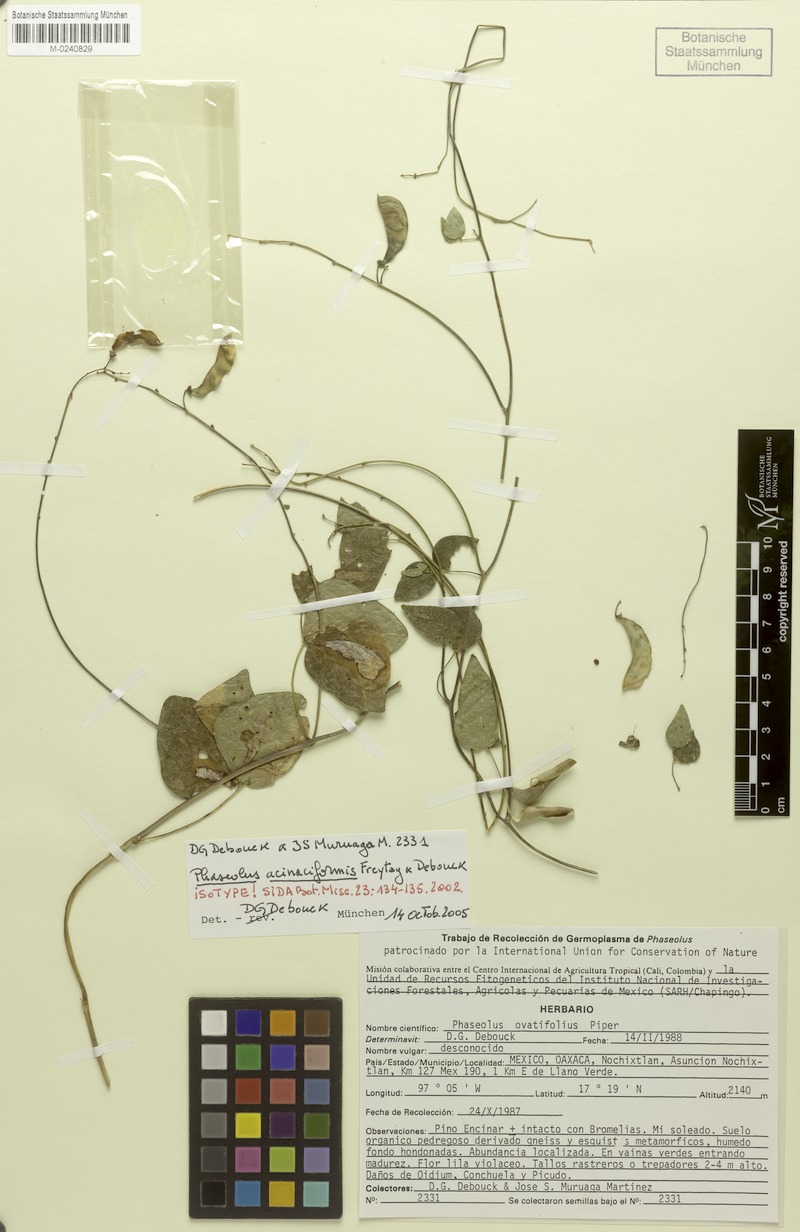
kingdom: Plantae
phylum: Tracheophyta
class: Magnoliopsida
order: Fabales
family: Fabaceae
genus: Phaseolus
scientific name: Phaseolus acinaciformis
